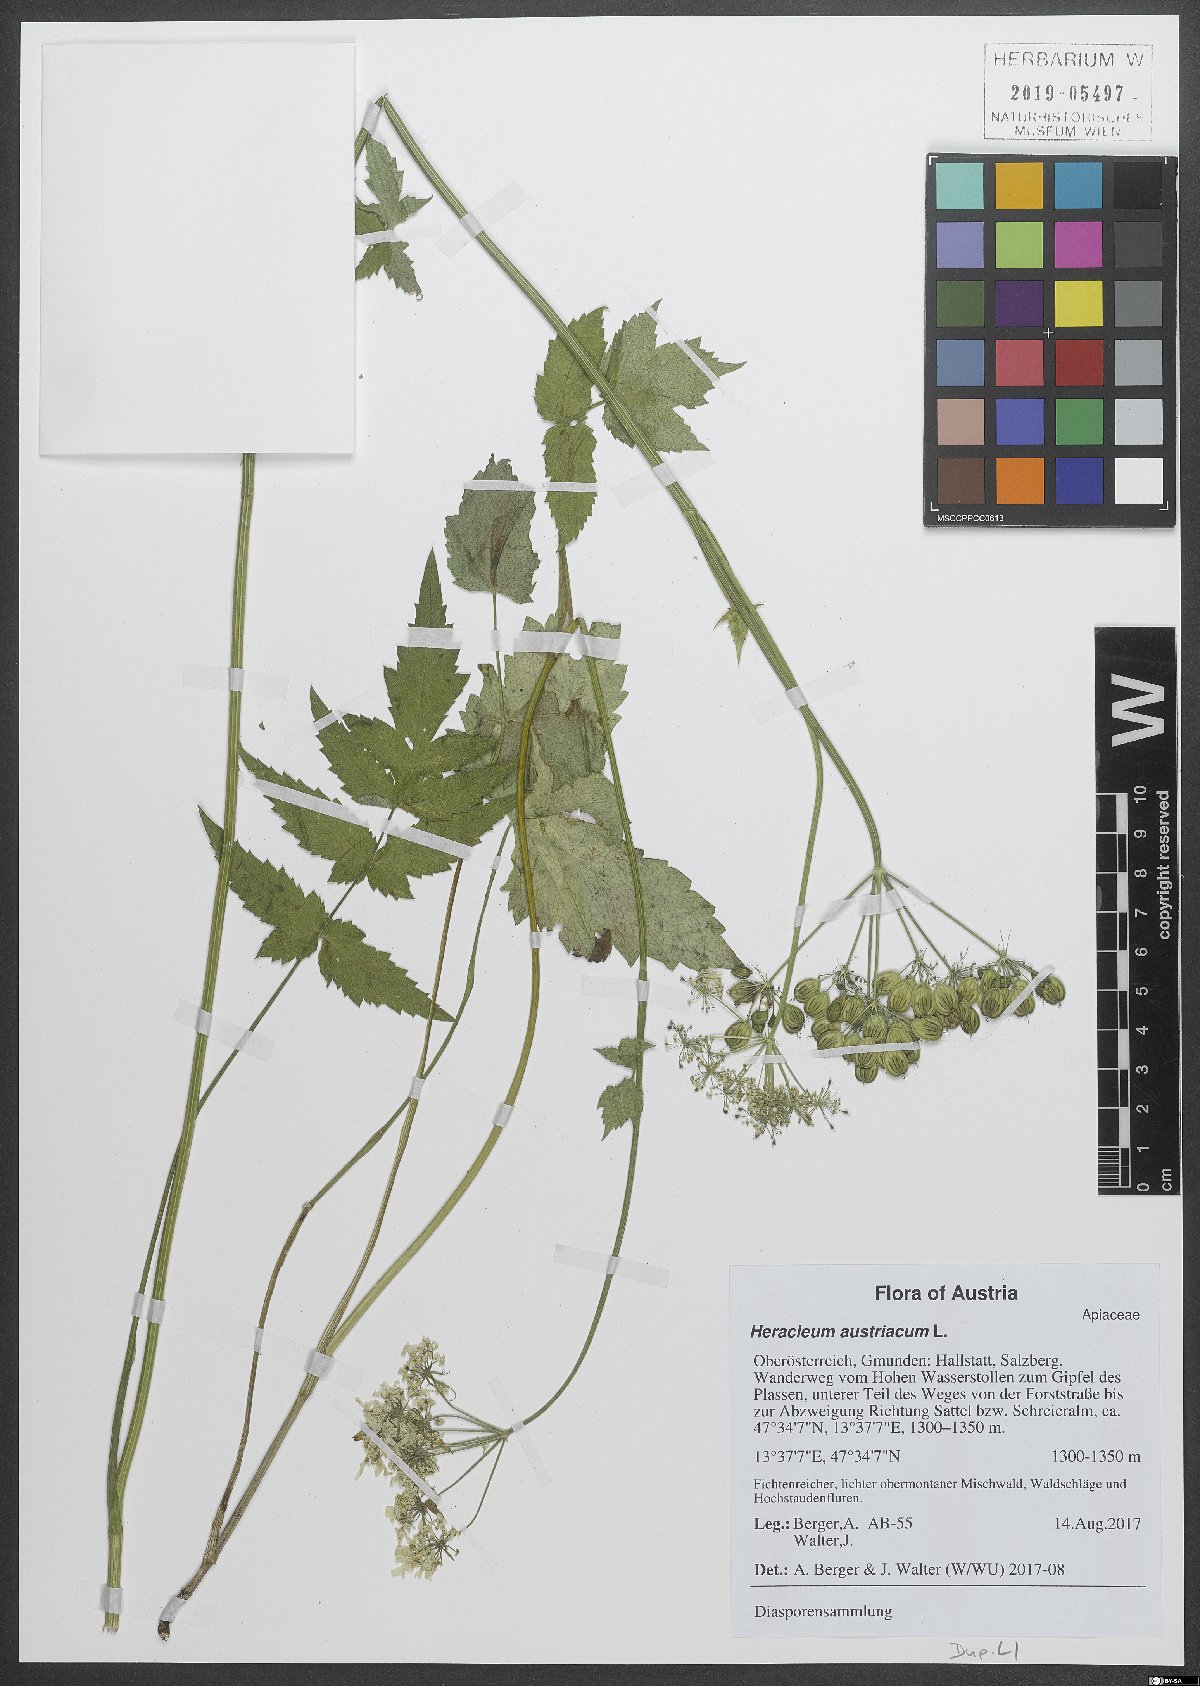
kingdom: Plantae
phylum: Tracheophyta
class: Magnoliopsida
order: Apiales
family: Apiaceae
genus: Heracleum
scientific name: Heracleum austriacum
